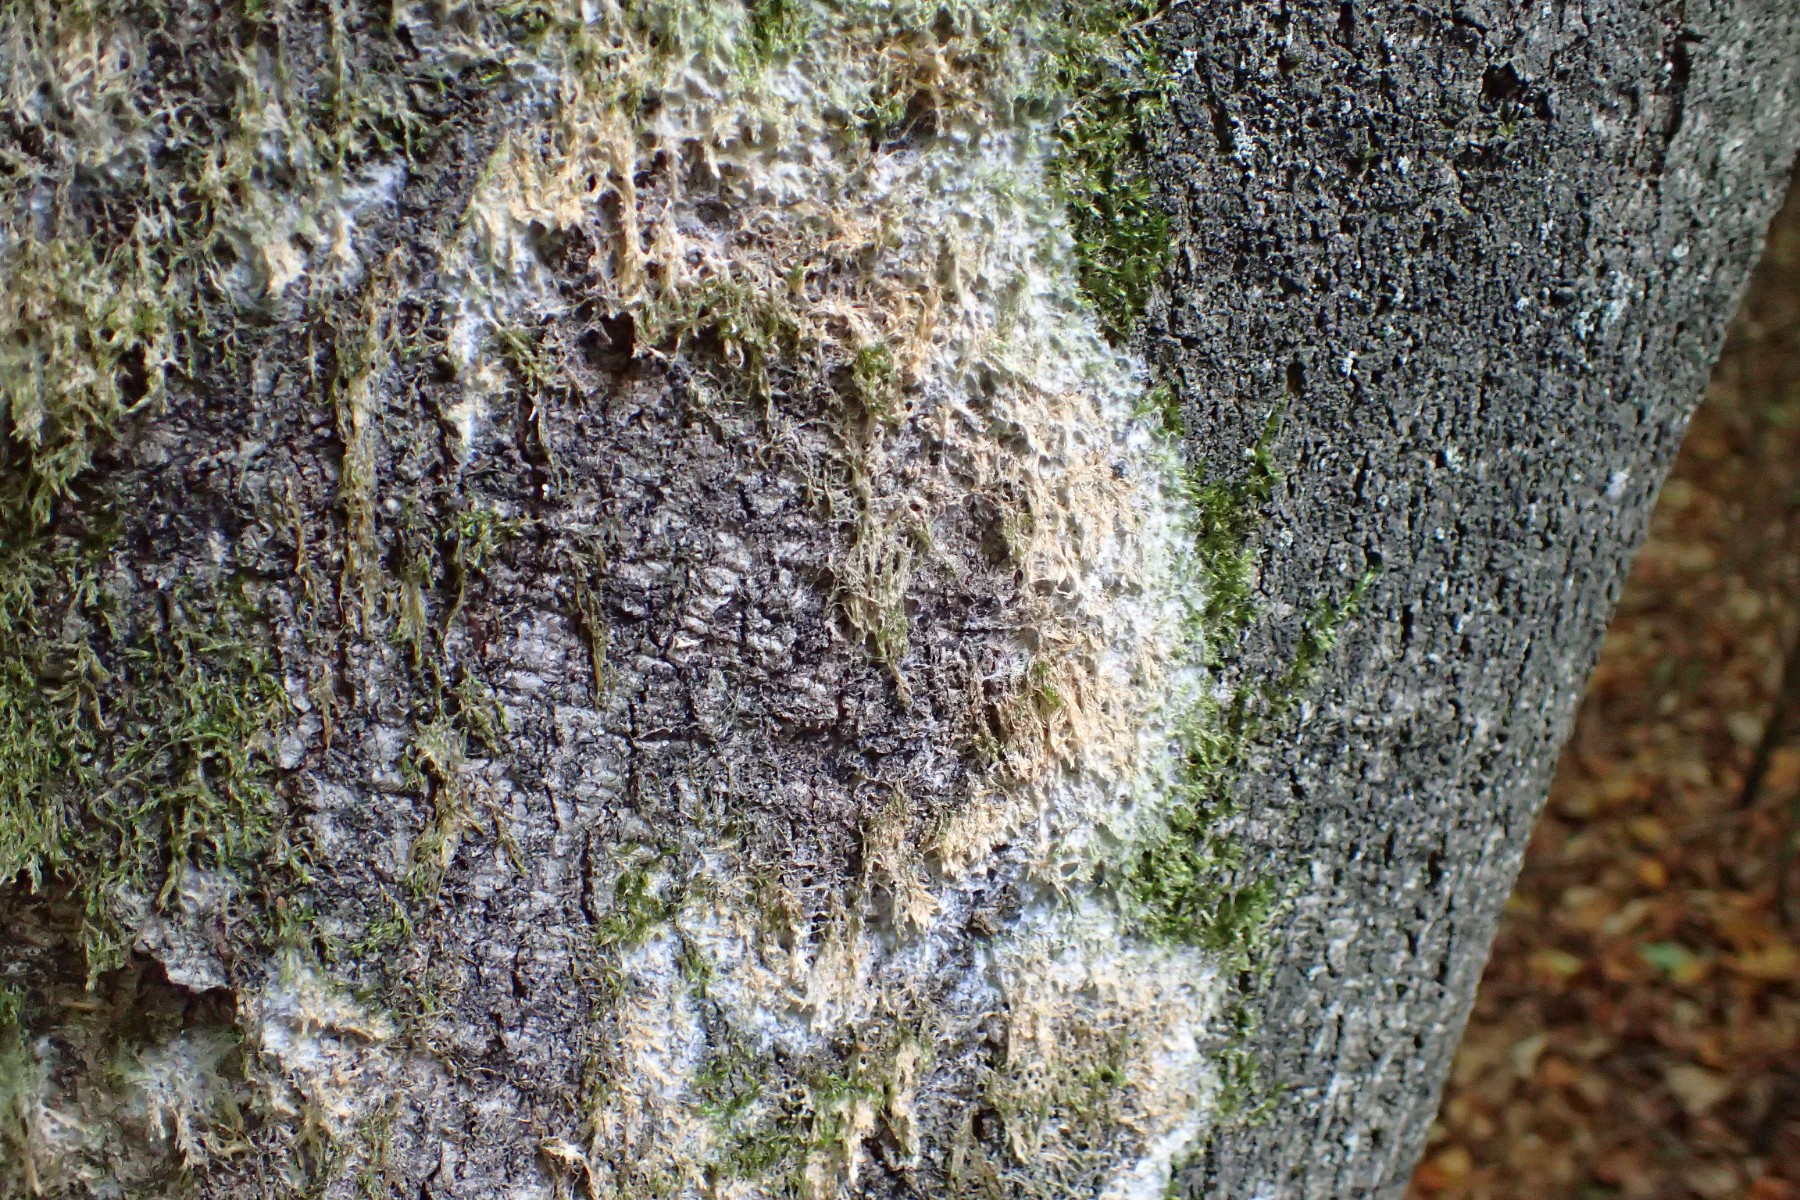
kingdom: Fungi
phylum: Basidiomycota
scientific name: Basidiomycota
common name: basidiesvampe
